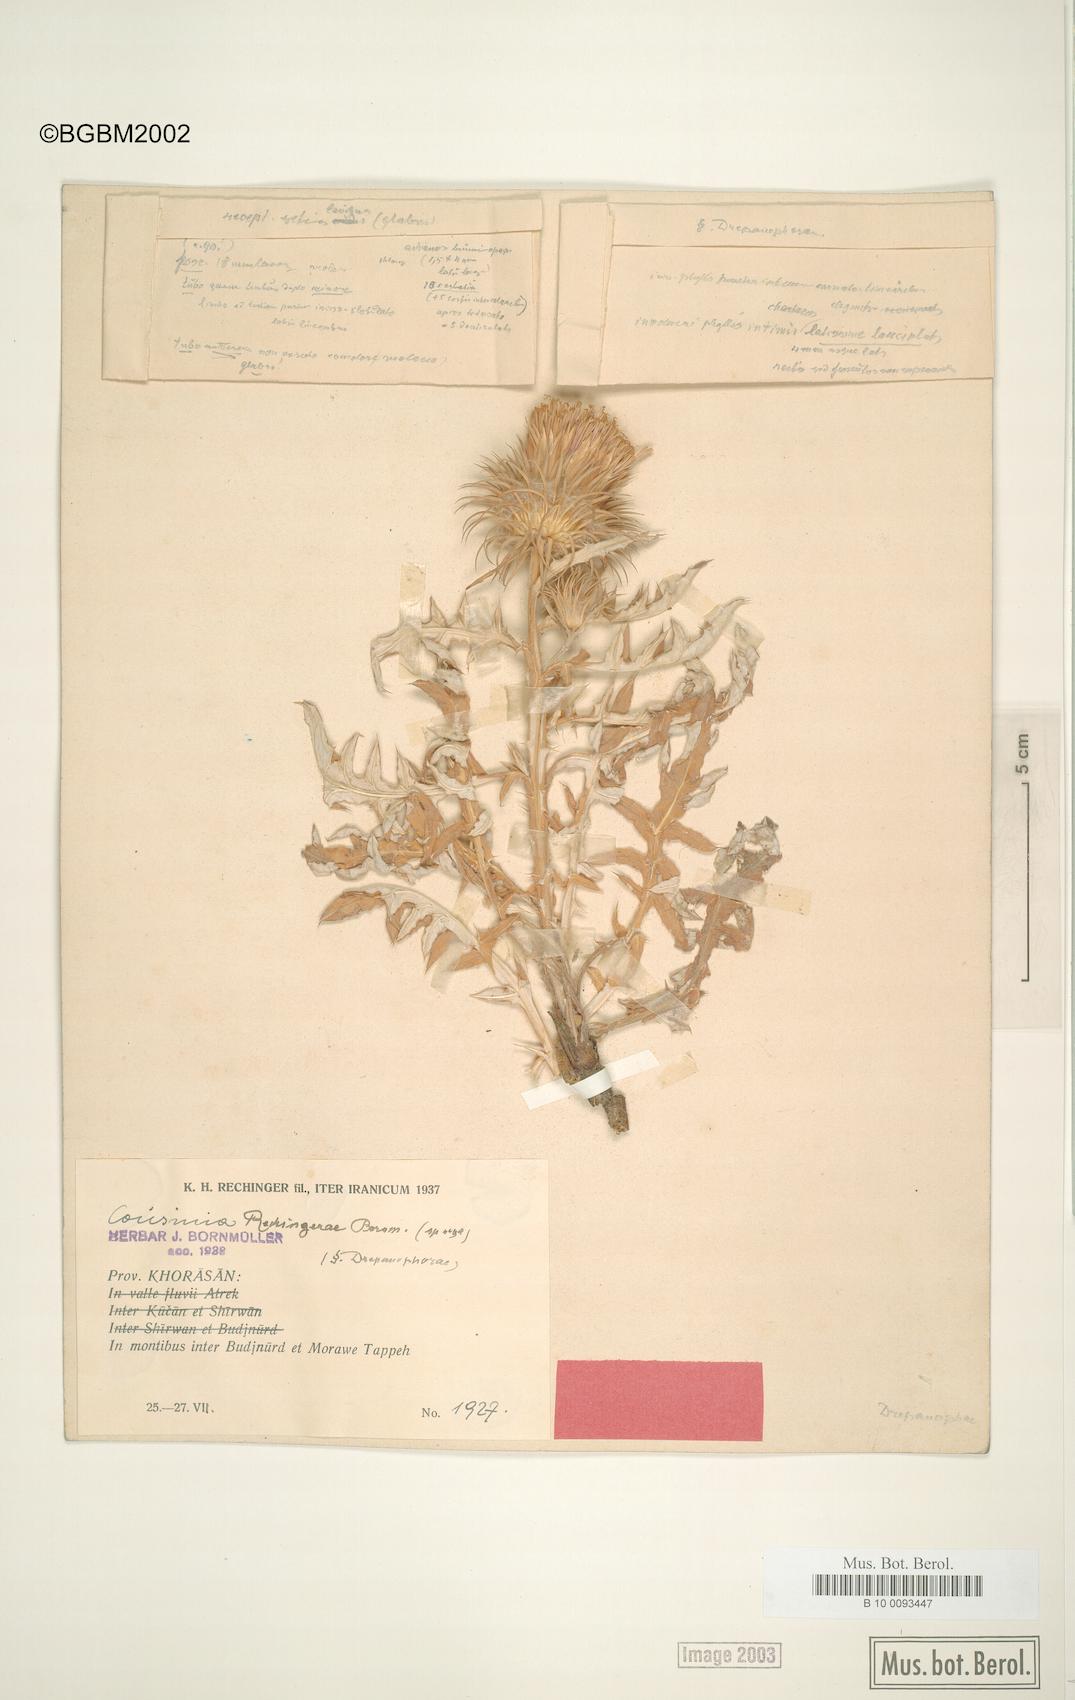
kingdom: Plantae
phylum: Tracheophyta
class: Magnoliopsida
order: Asterales
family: Asteraceae
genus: Cousinia
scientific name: Cousinia rechingerae
